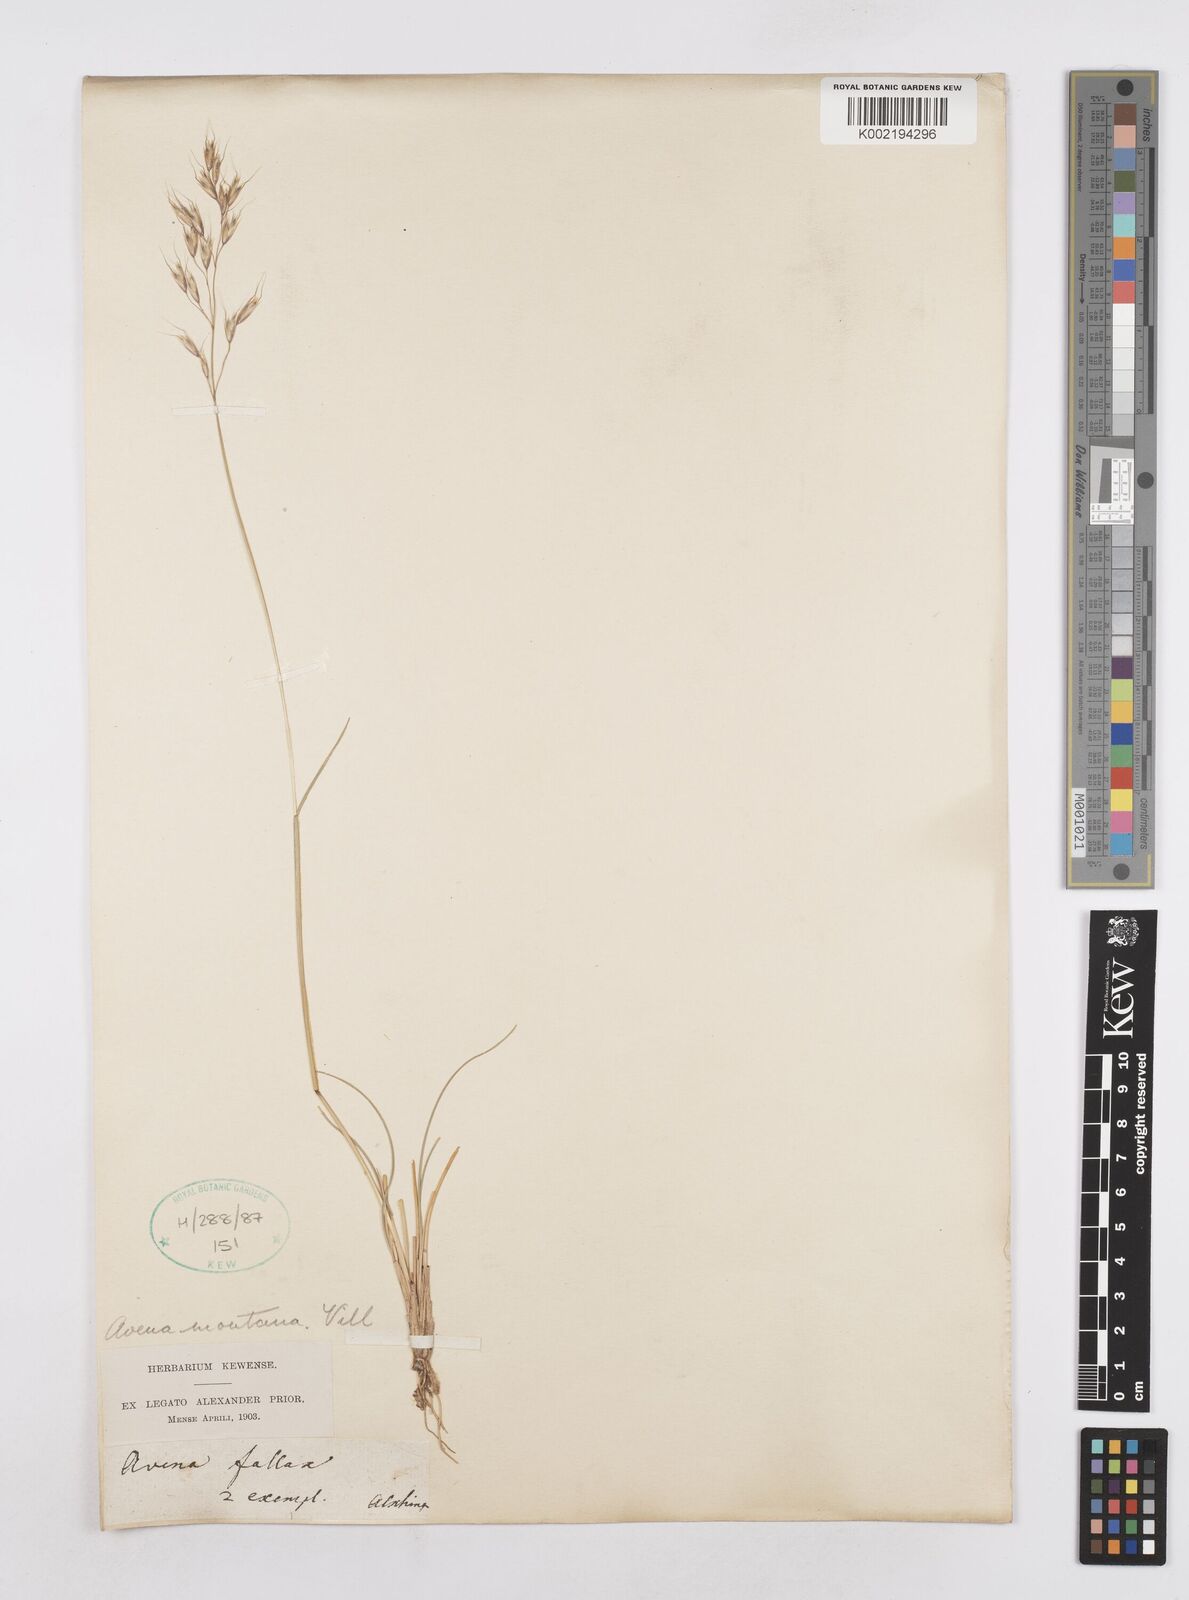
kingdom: Plantae
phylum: Tracheophyta
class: Liliopsida
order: Poales
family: Poaceae
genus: Helictotrichon
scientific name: Helictotrichon sedenense
